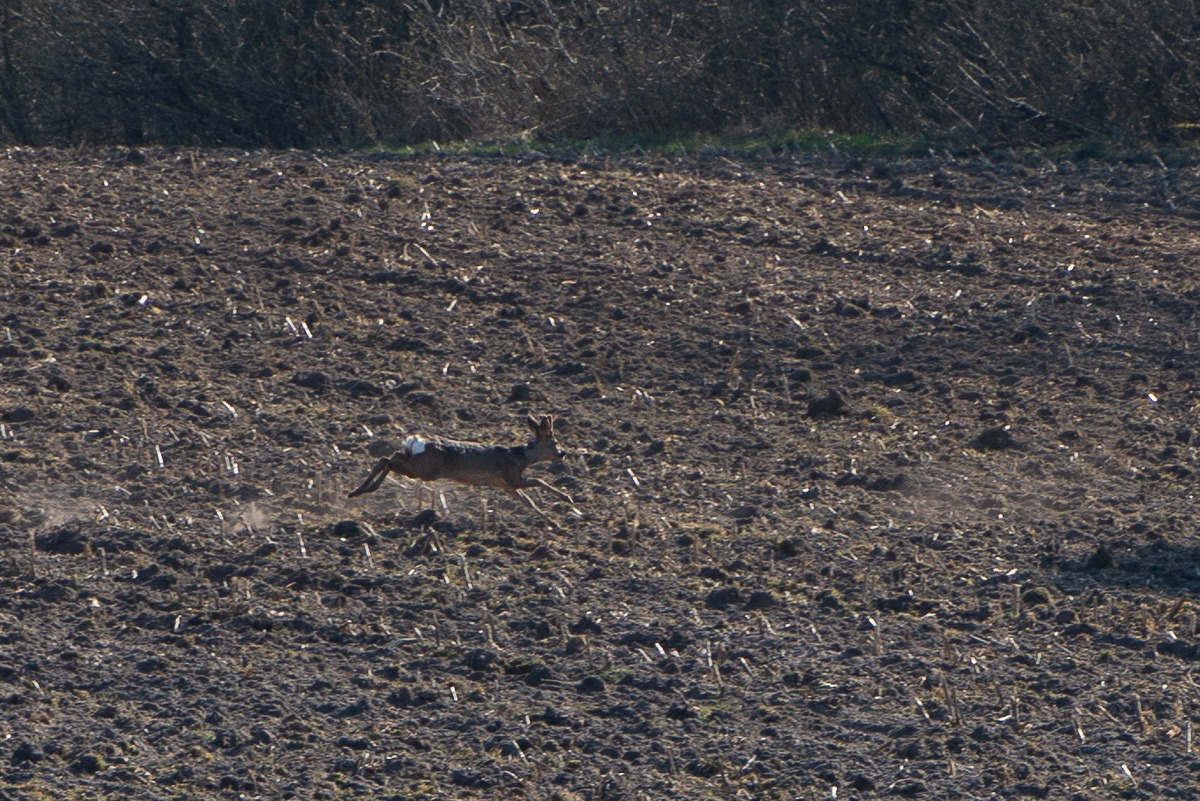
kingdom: Animalia
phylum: Chordata
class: Mammalia
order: Artiodactyla
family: Cervidae
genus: Capreolus
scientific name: Capreolus capreolus
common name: Rådyr
